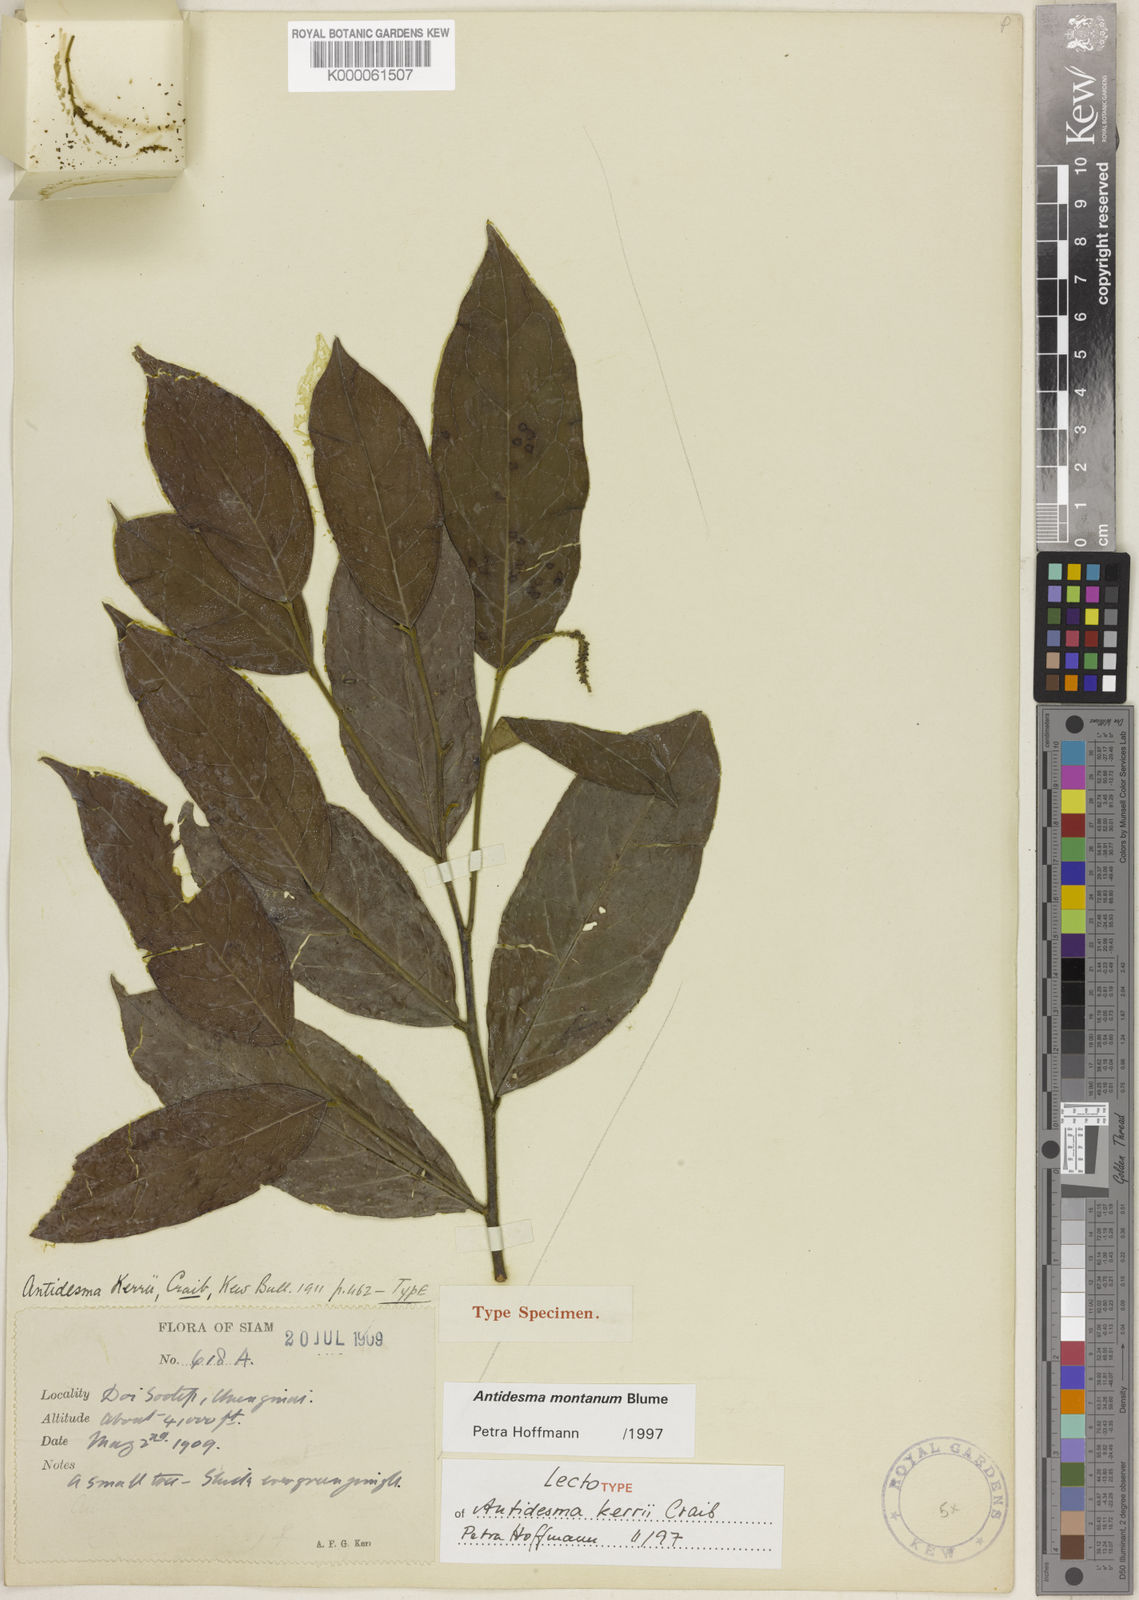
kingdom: Plantae
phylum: Tracheophyta
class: Magnoliopsida
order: Malpighiales
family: Phyllanthaceae
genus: Antidesma
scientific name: Antidesma montanum
